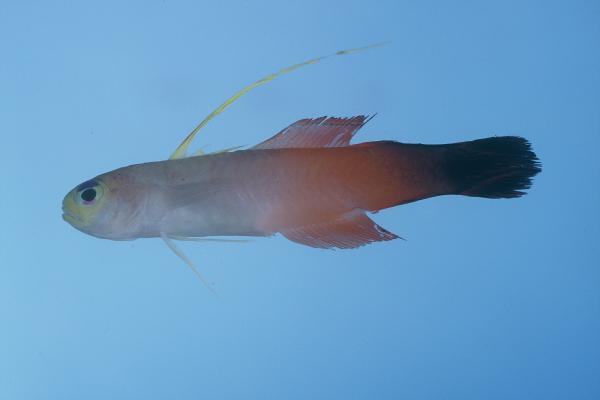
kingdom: Animalia
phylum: Chordata
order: Perciformes
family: Microdesmidae
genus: Nemateleotris
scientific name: Nemateleotris magnifica
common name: Fire goby
